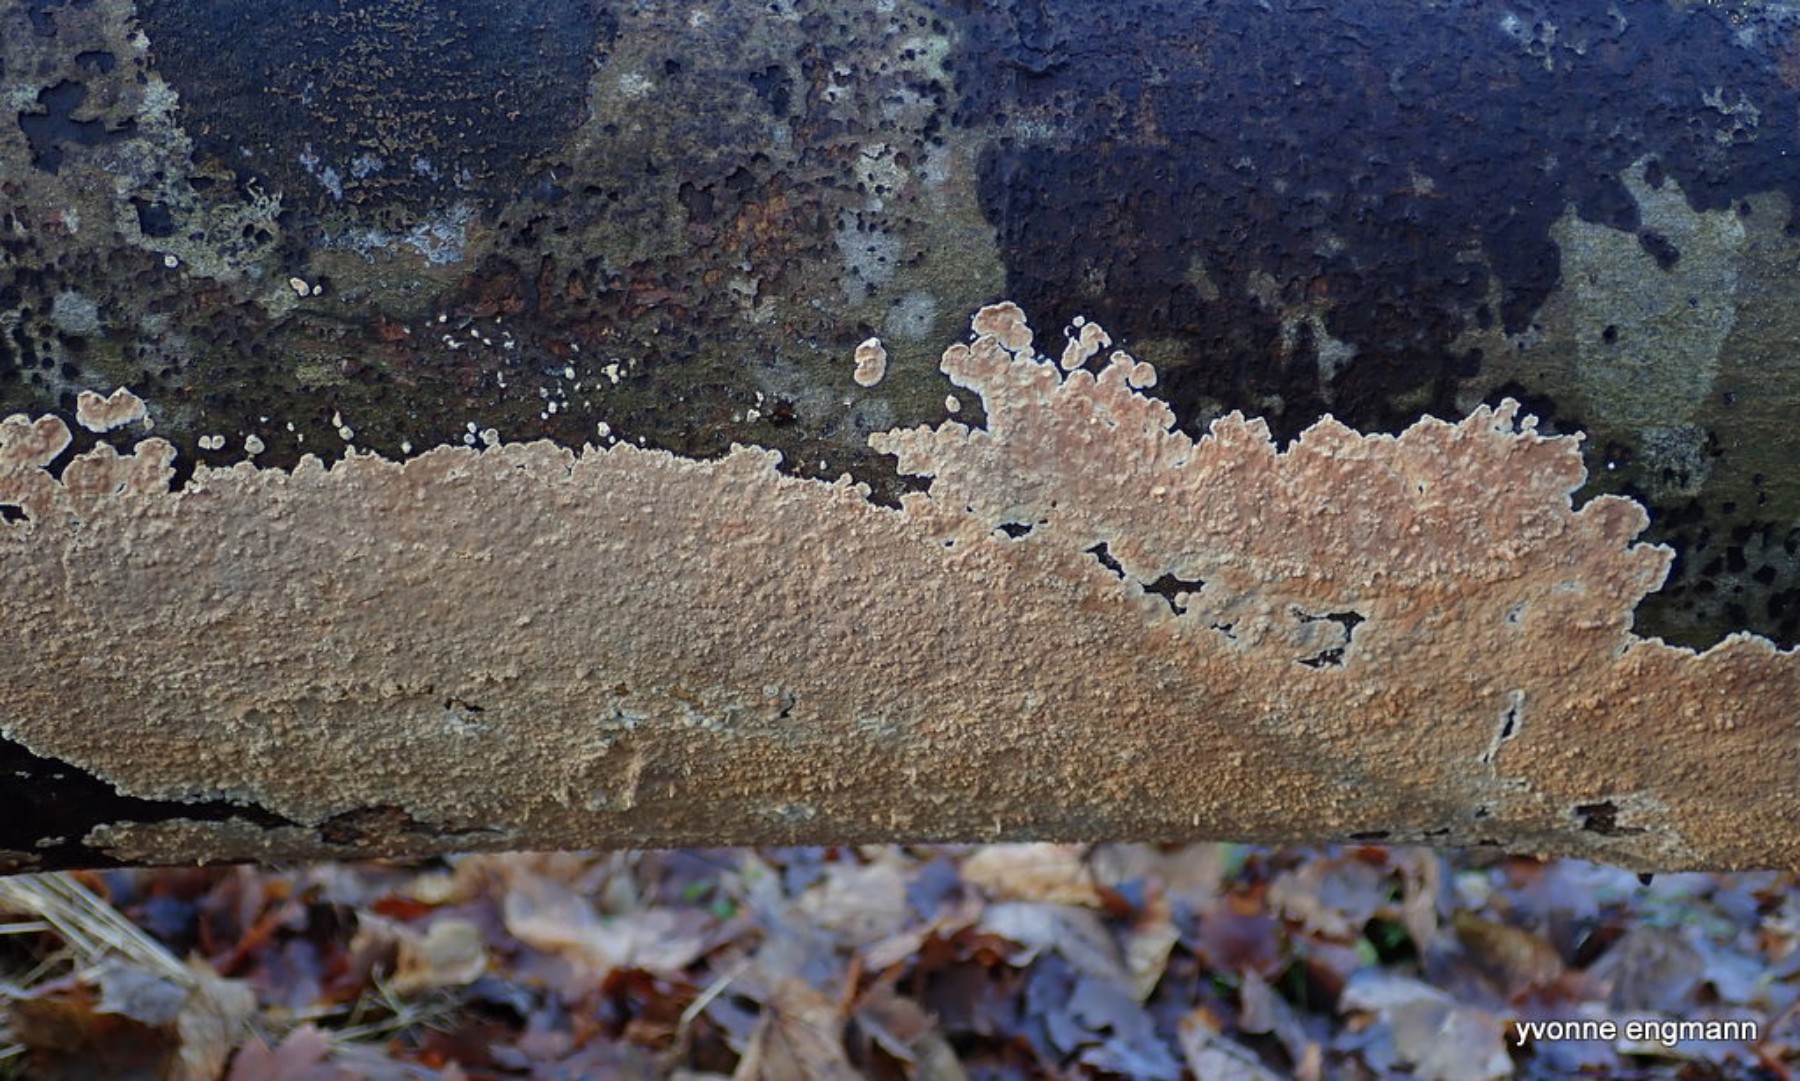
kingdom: Fungi
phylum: Basidiomycota
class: Agaricomycetes
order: Agaricales
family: Physalacriaceae
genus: Cylindrobasidium
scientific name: Cylindrobasidium evolvens
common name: sprækkehinde
